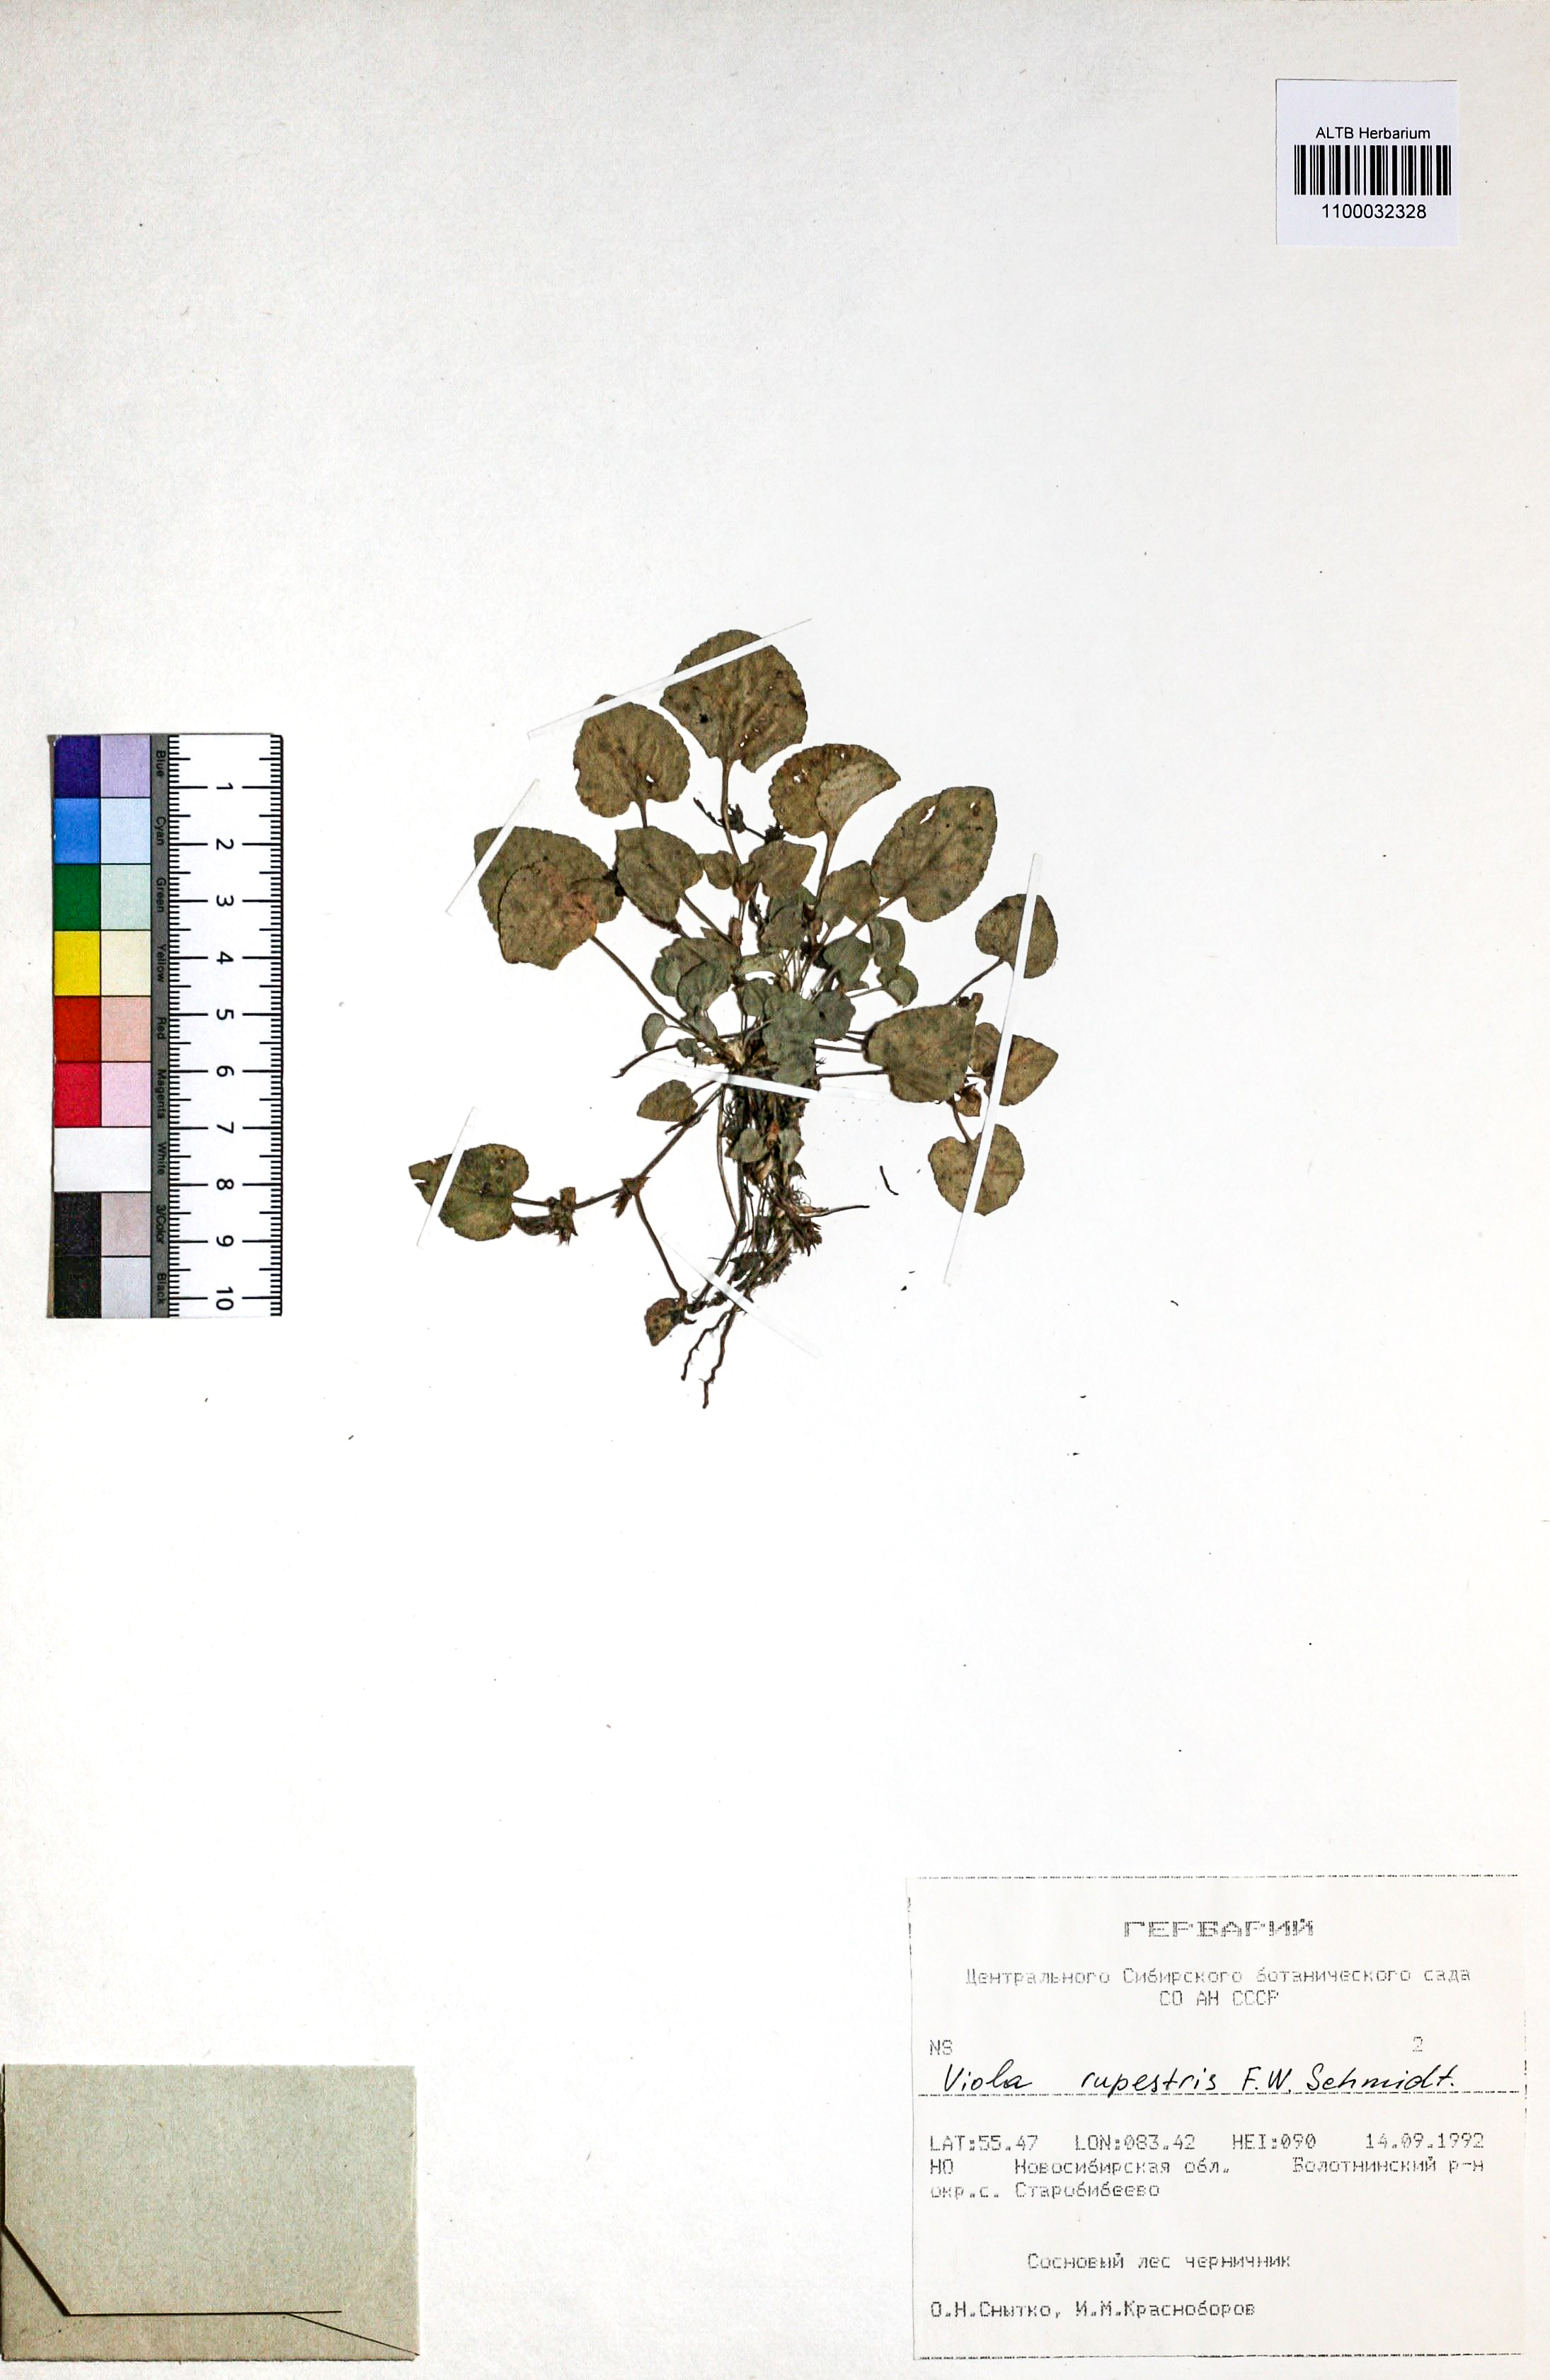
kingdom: Plantae
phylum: Tracheophyta
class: Magnoliopsida
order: Malpighiales
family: Violaceae
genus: Viola
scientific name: Viola rupestris
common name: Teesdale violet
